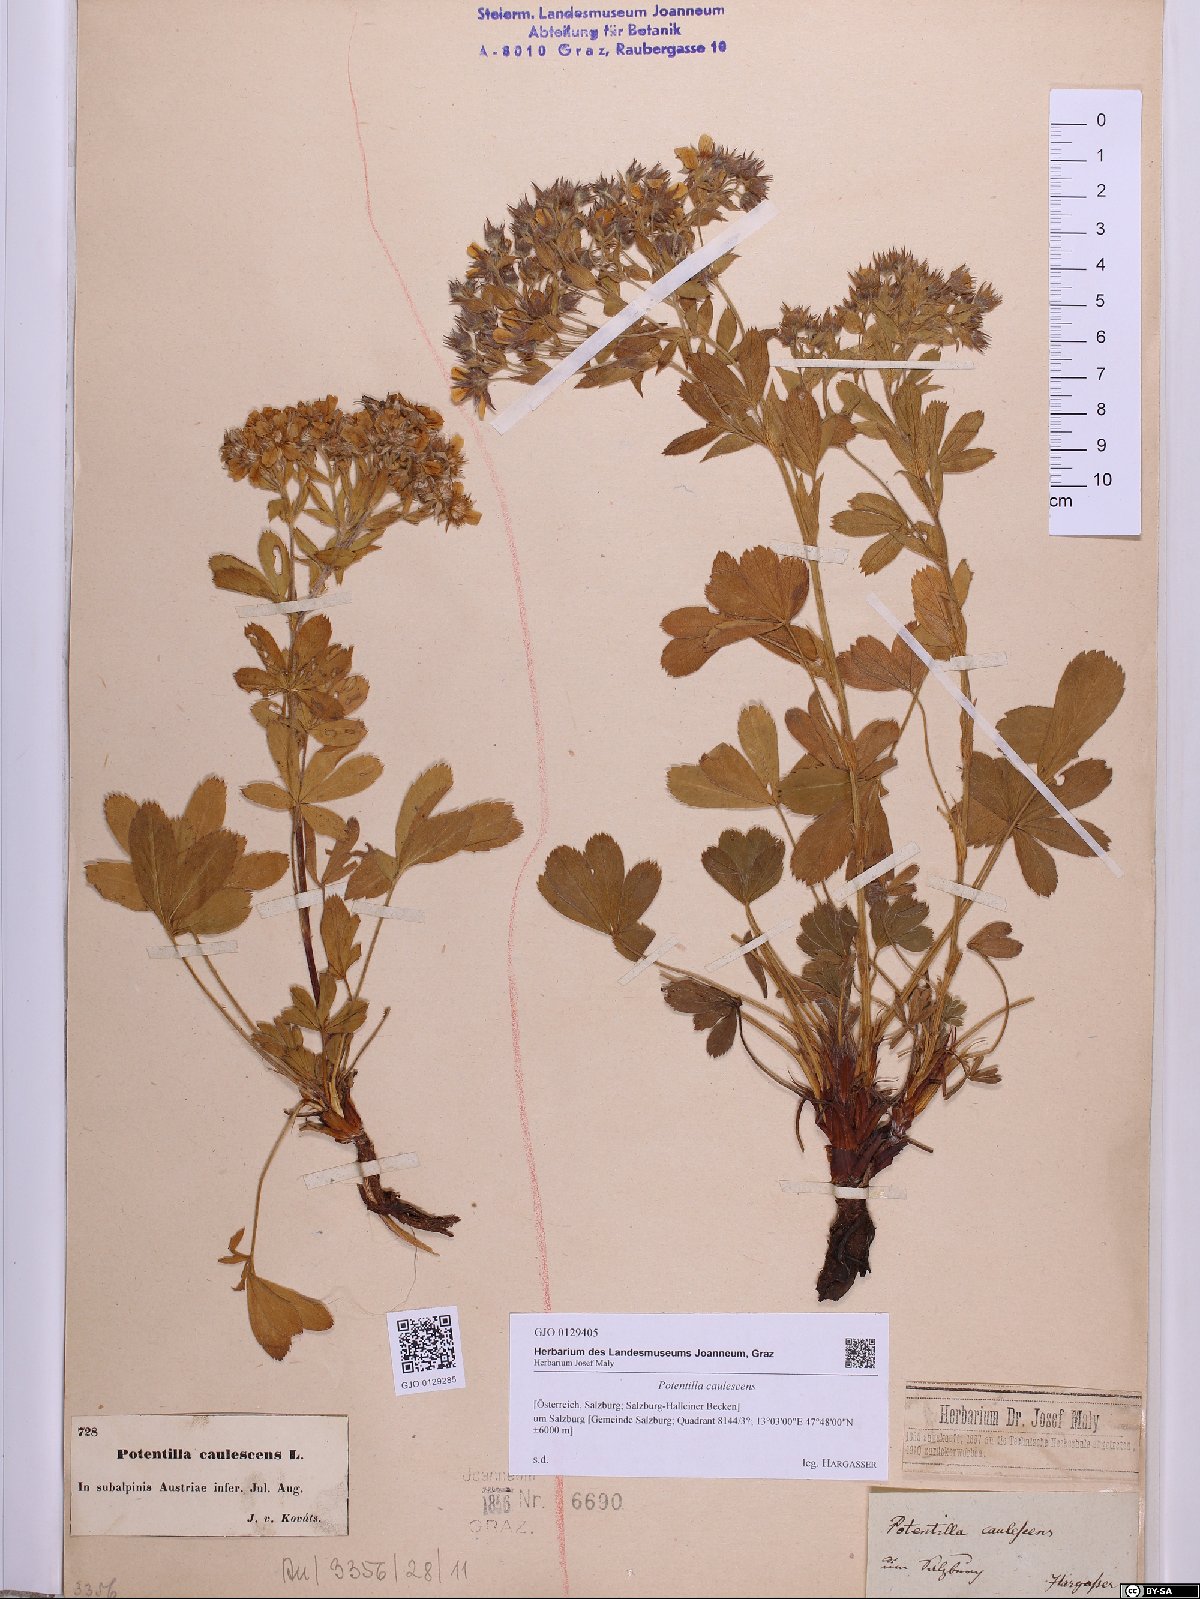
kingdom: Plantae
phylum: Tracheophyta
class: Magnoliopsida
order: Rosales
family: Rosaceae
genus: Potentilla
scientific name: Potentilla caulescens
